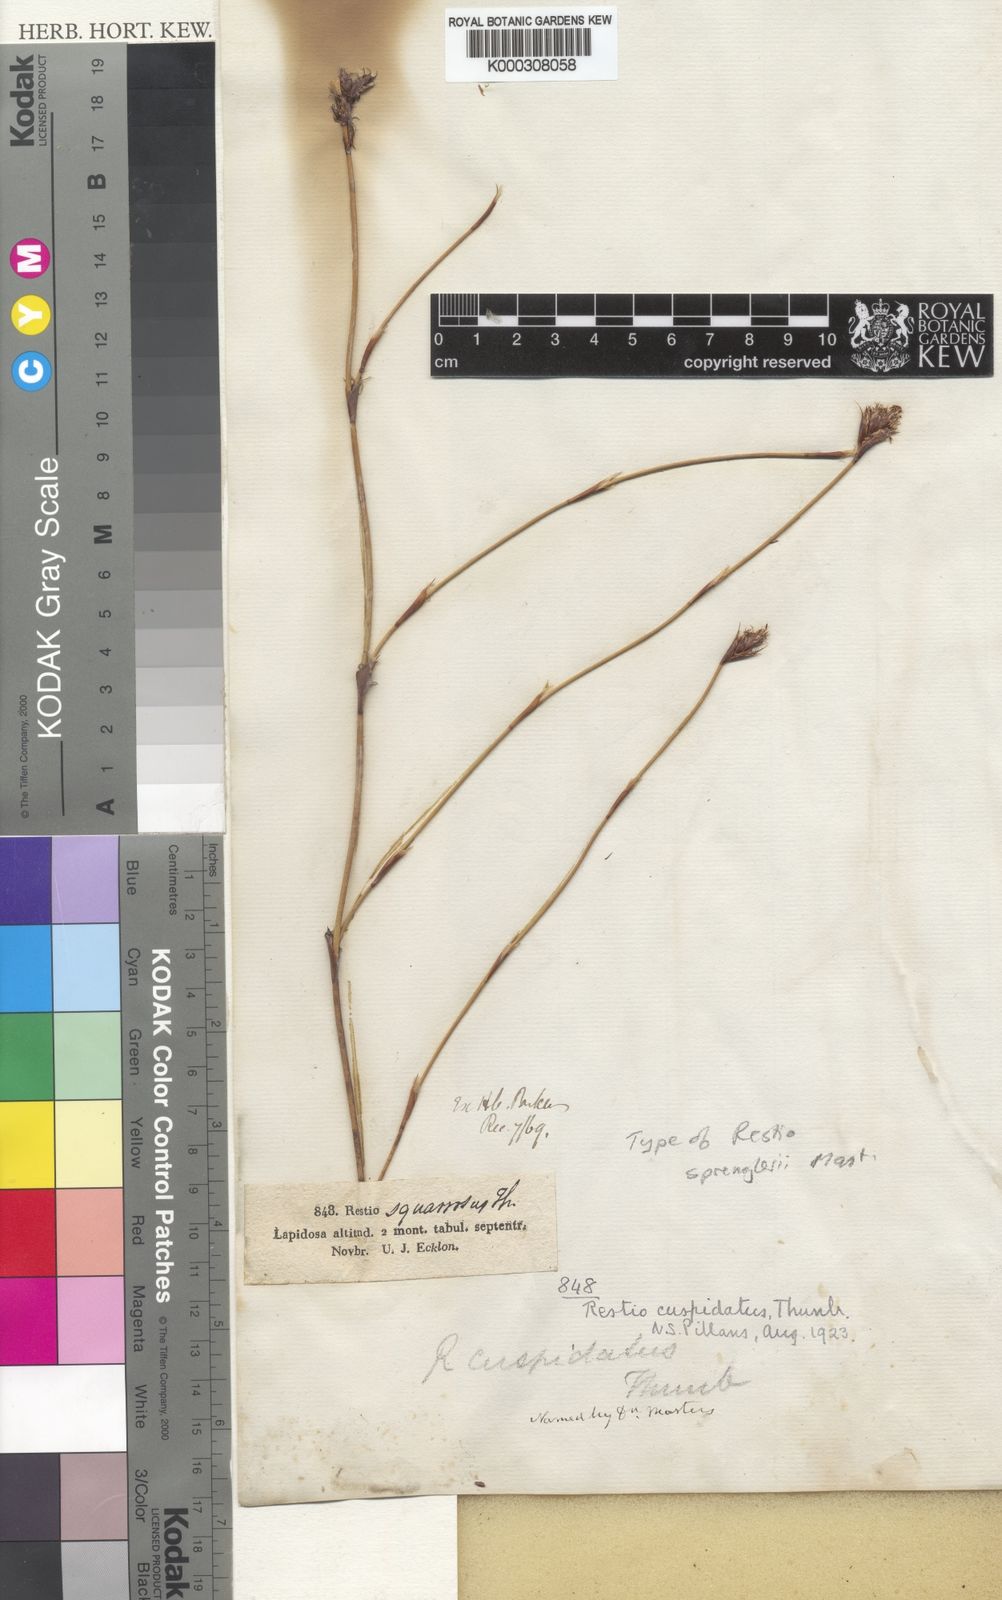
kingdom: Plantae
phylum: Tracheophyta
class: Liliopsida
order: Poales
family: Restionaceae
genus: Restio
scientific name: Restio capensis
